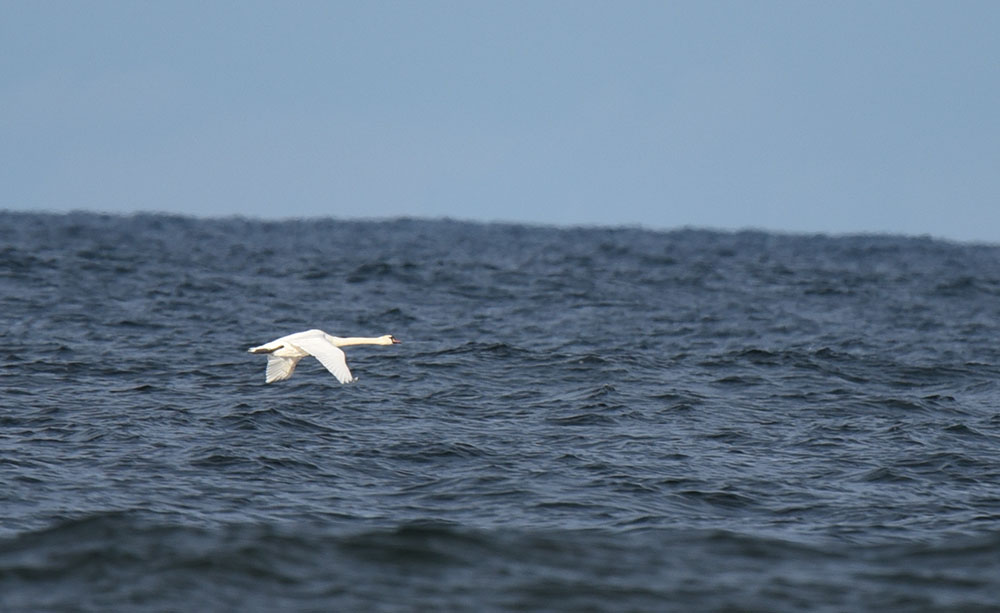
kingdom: Animalia
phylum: Chordata
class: Aves
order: Anseriformes
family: Anatidae
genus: Cygnus
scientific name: Cygnus olor
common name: Mute swan
